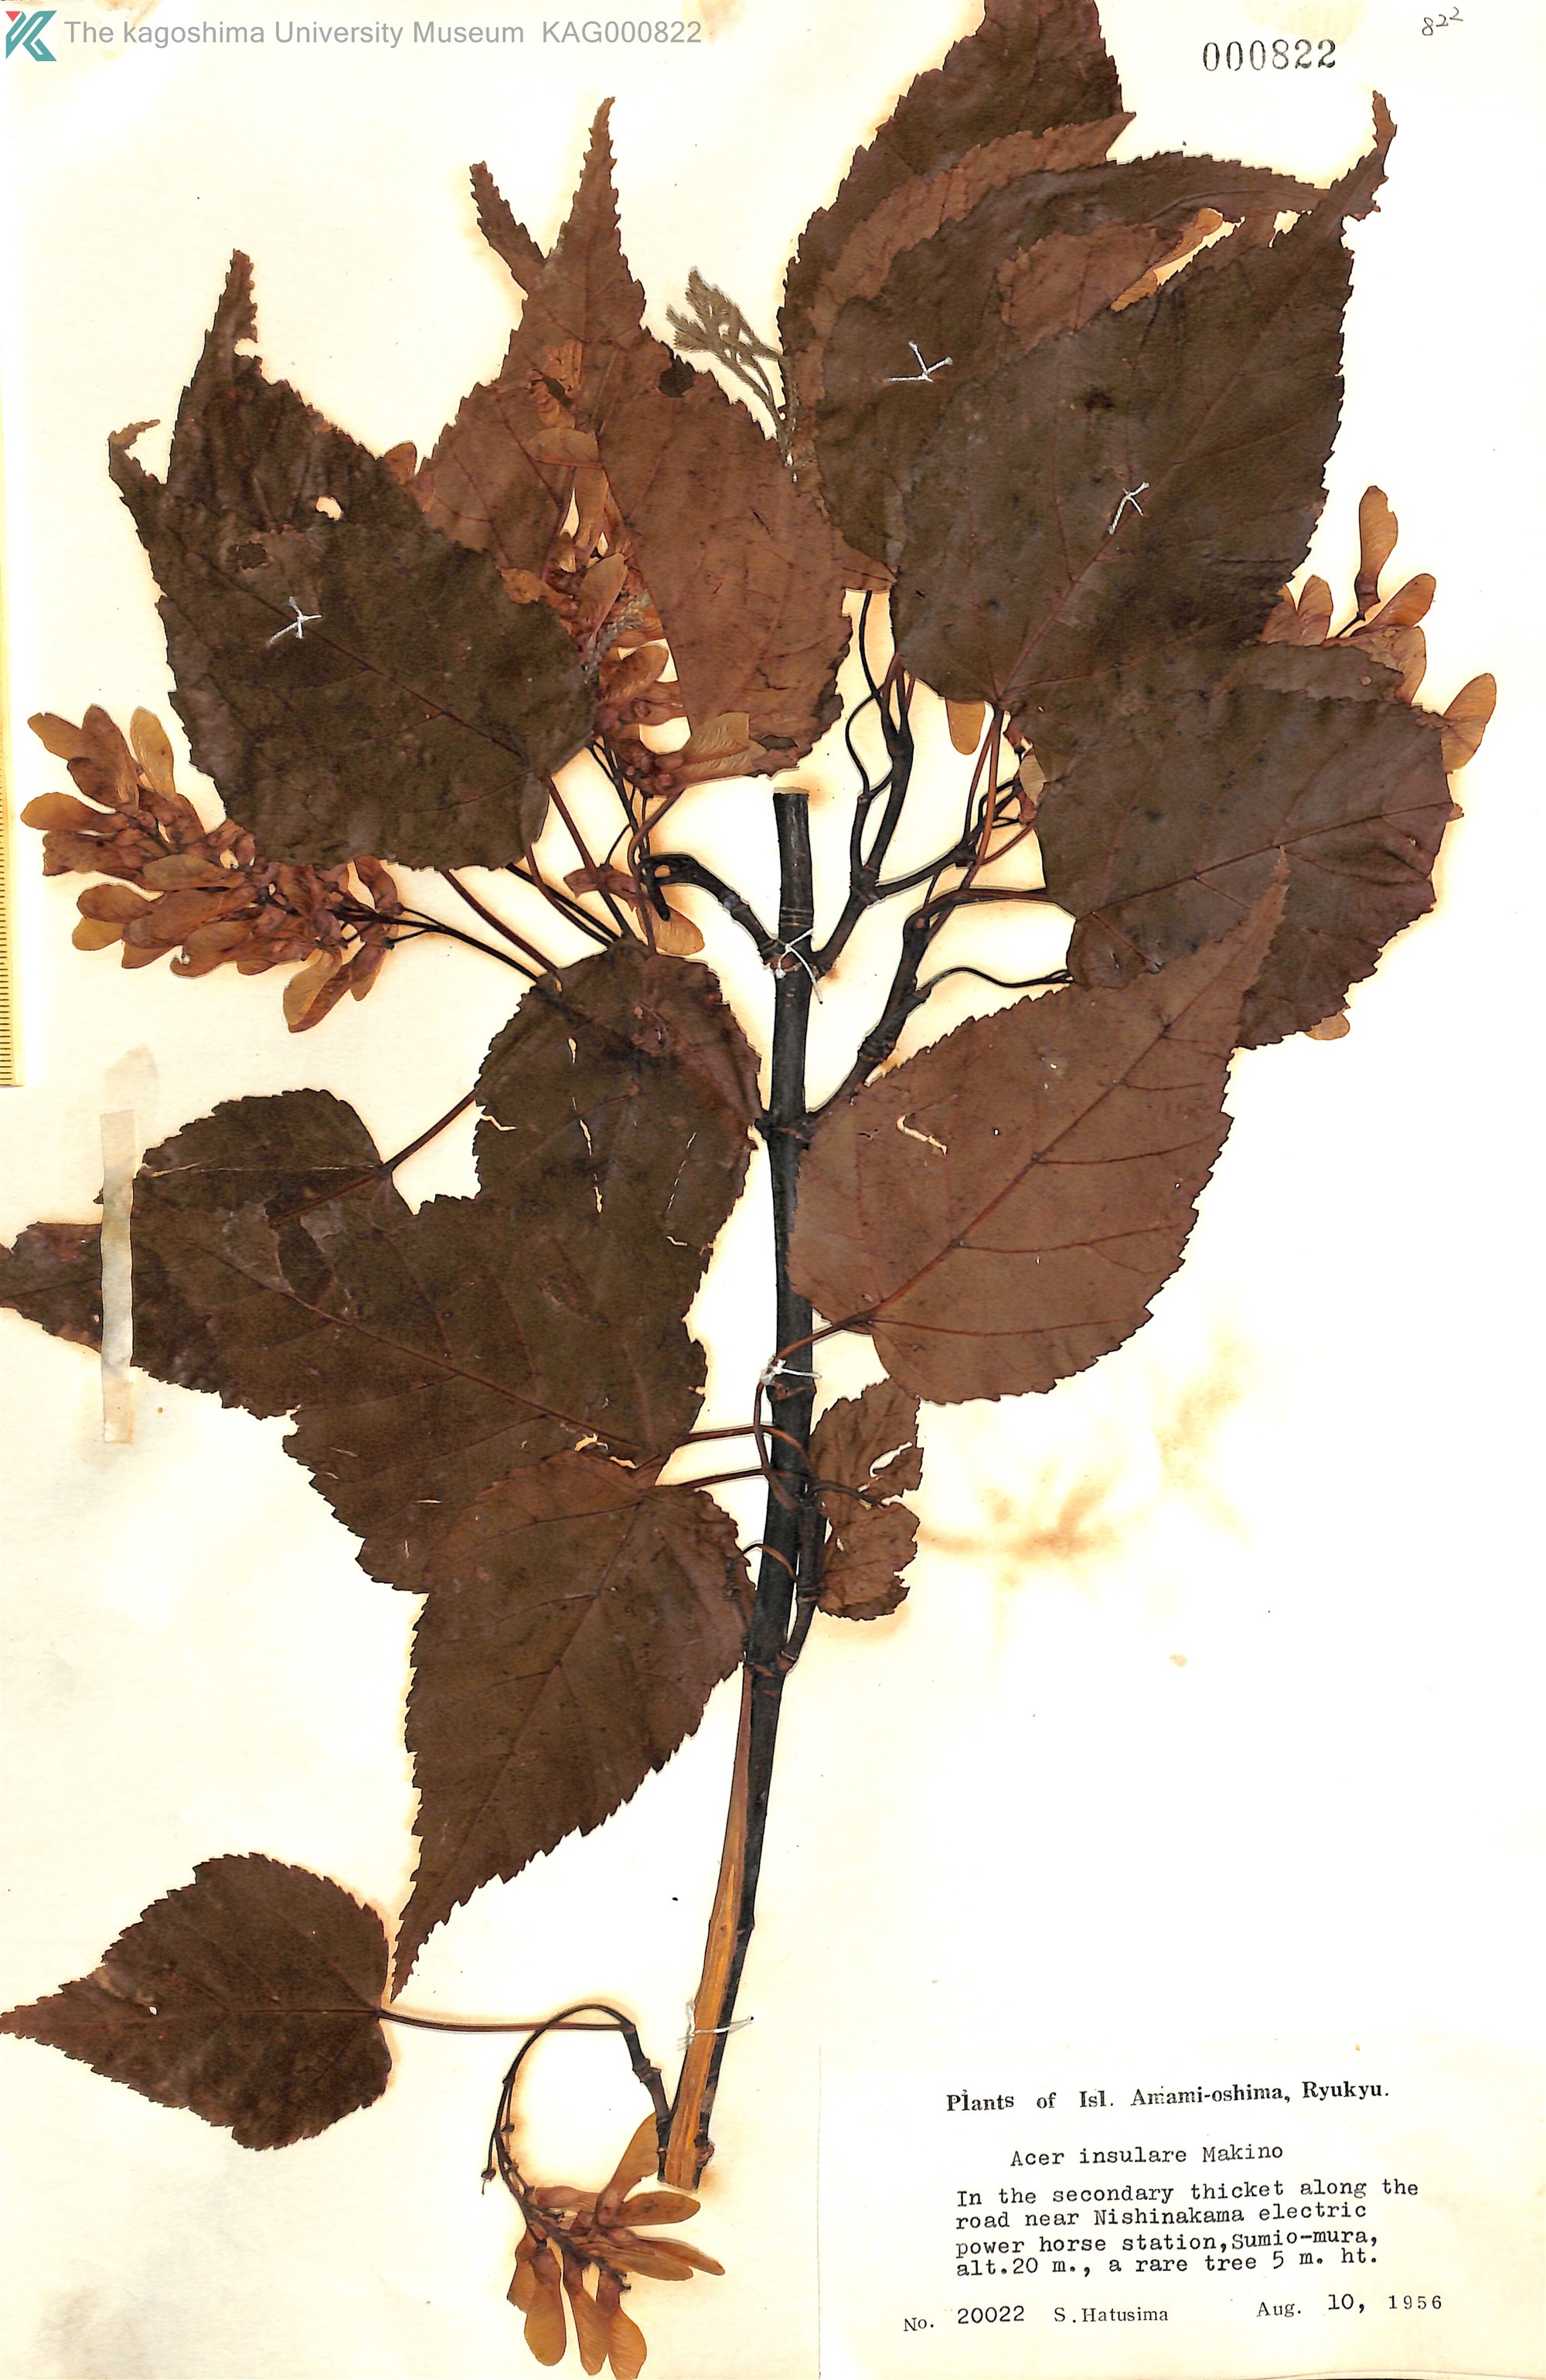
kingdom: Plantae
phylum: Tracheophyta
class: Magnoliopsida
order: Sapindales
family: Sapindaceae
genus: Acer
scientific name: Acer caudatifolium
